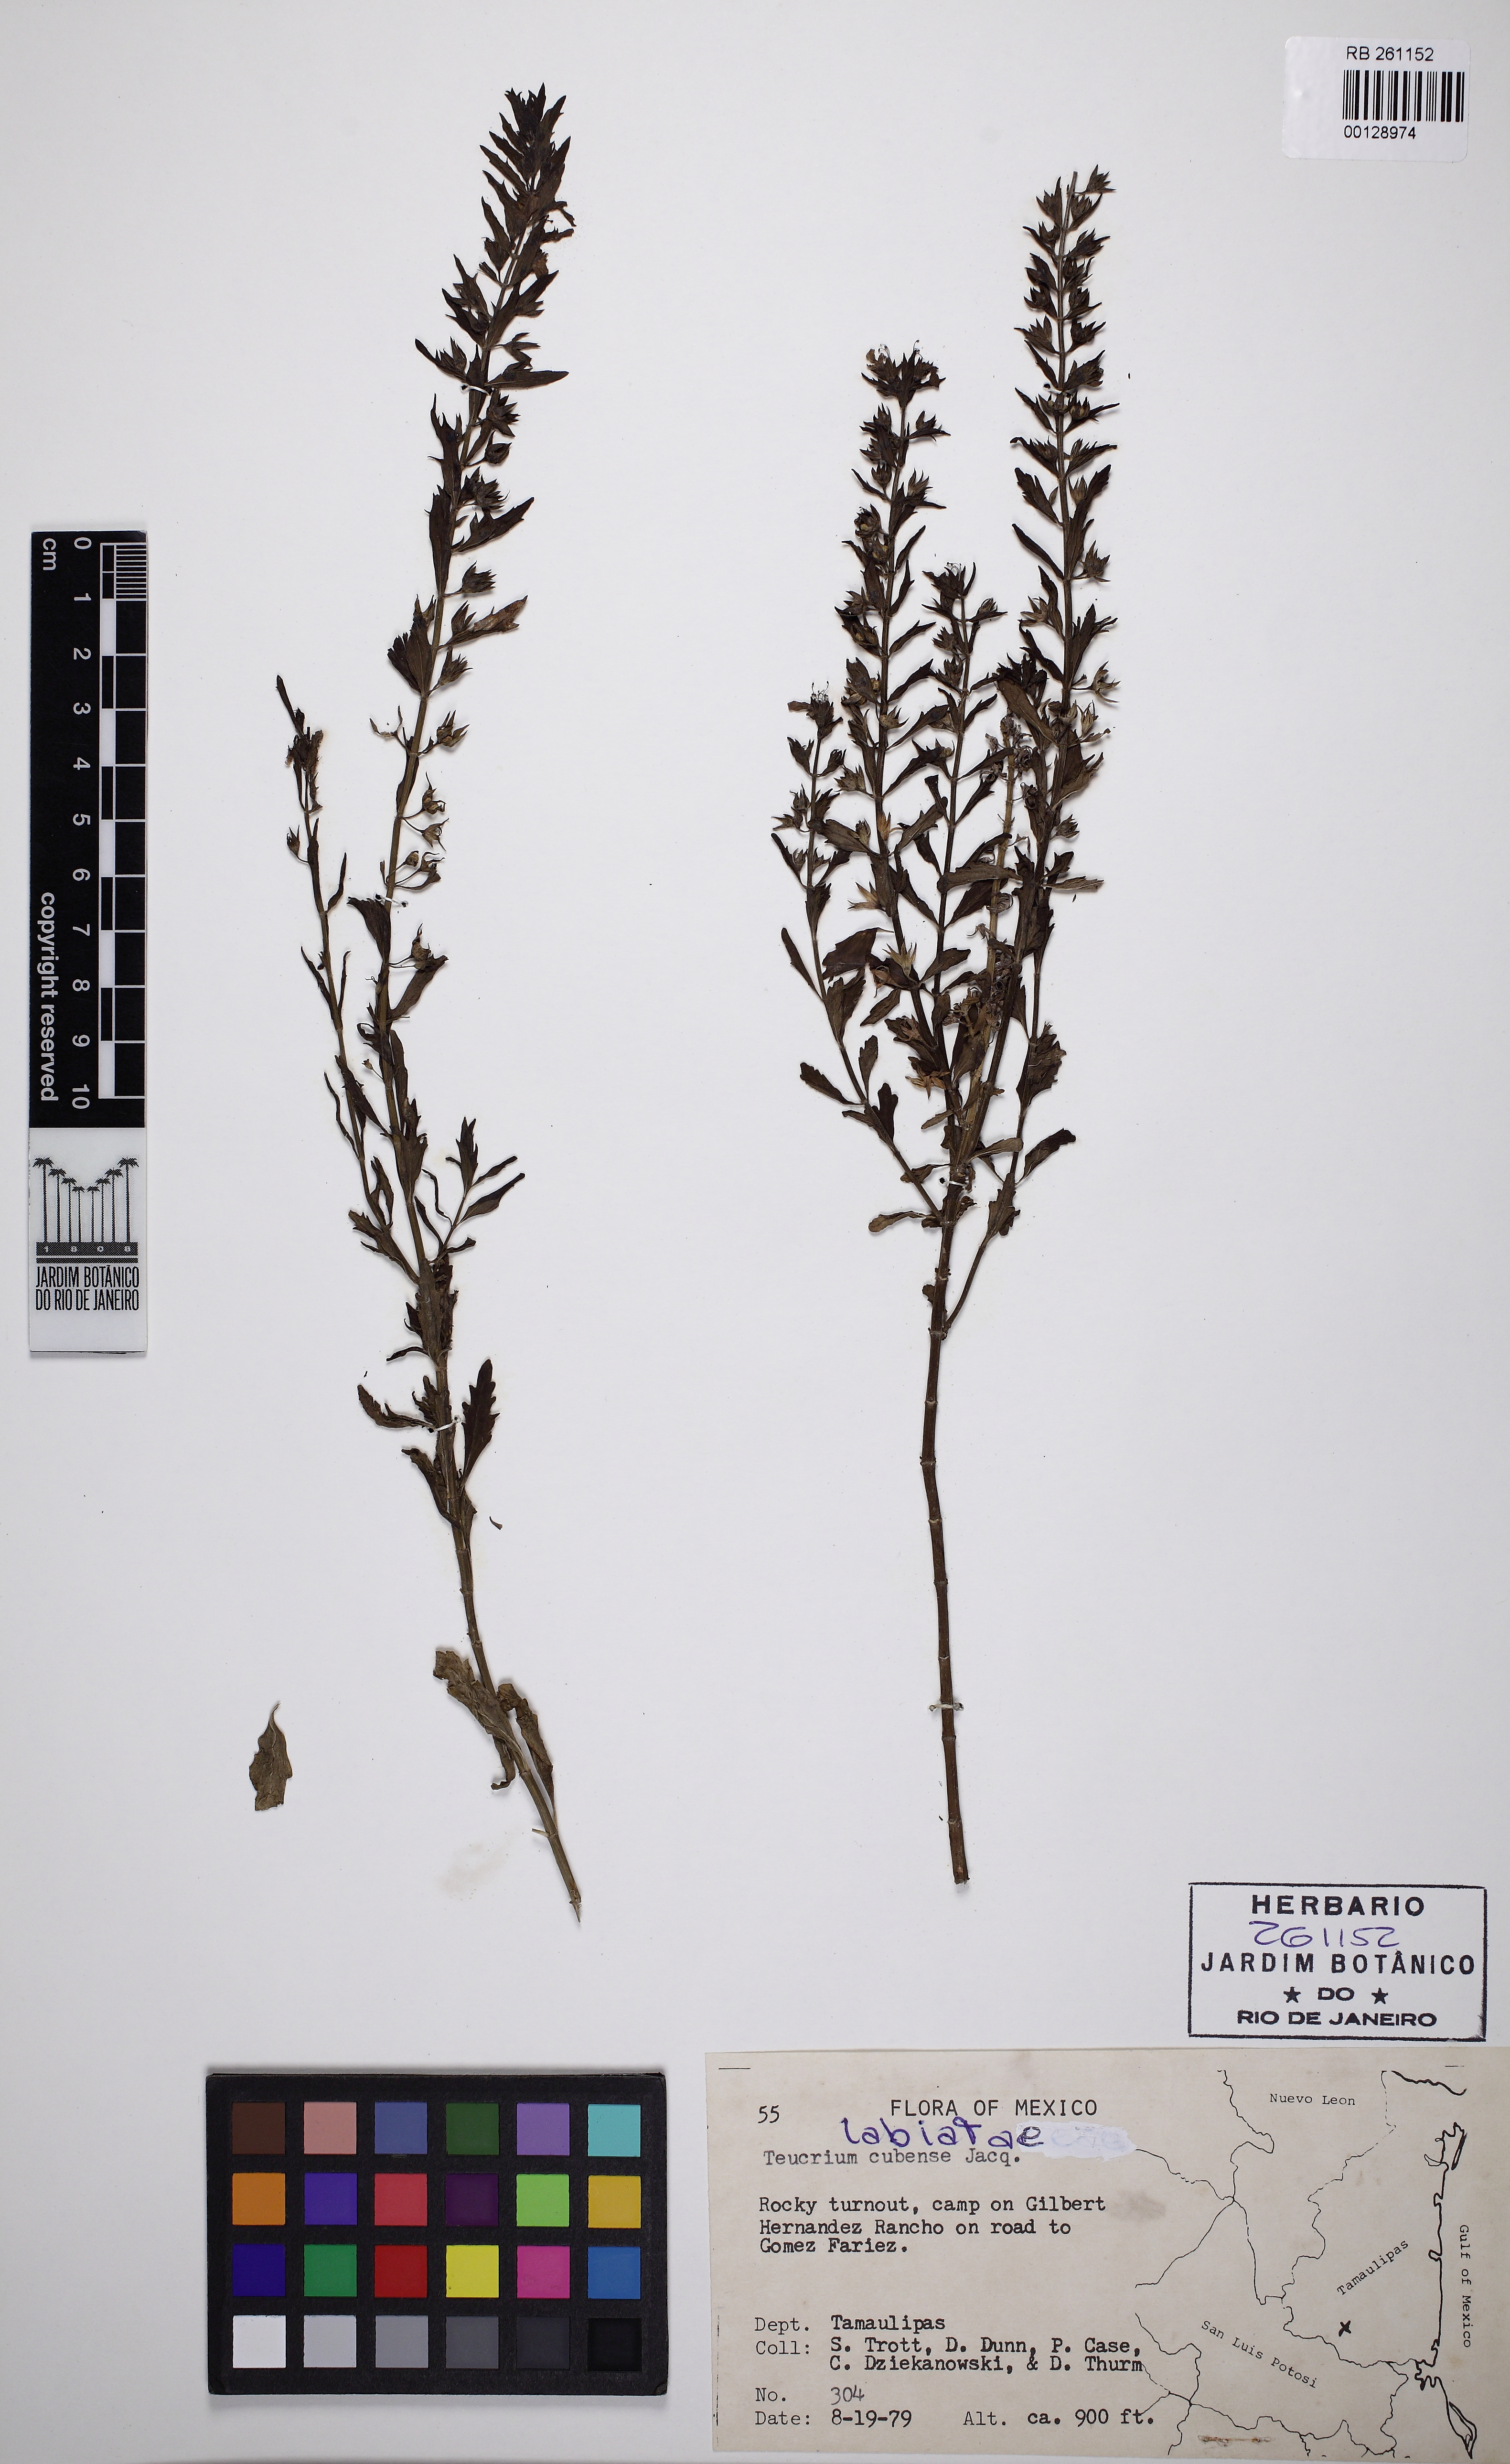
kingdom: Plantae
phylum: Tracheophyta
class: Magnoliopsida
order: Lamiales
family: Lamiaceae
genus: Teucrium
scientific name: Teucrium cubense
